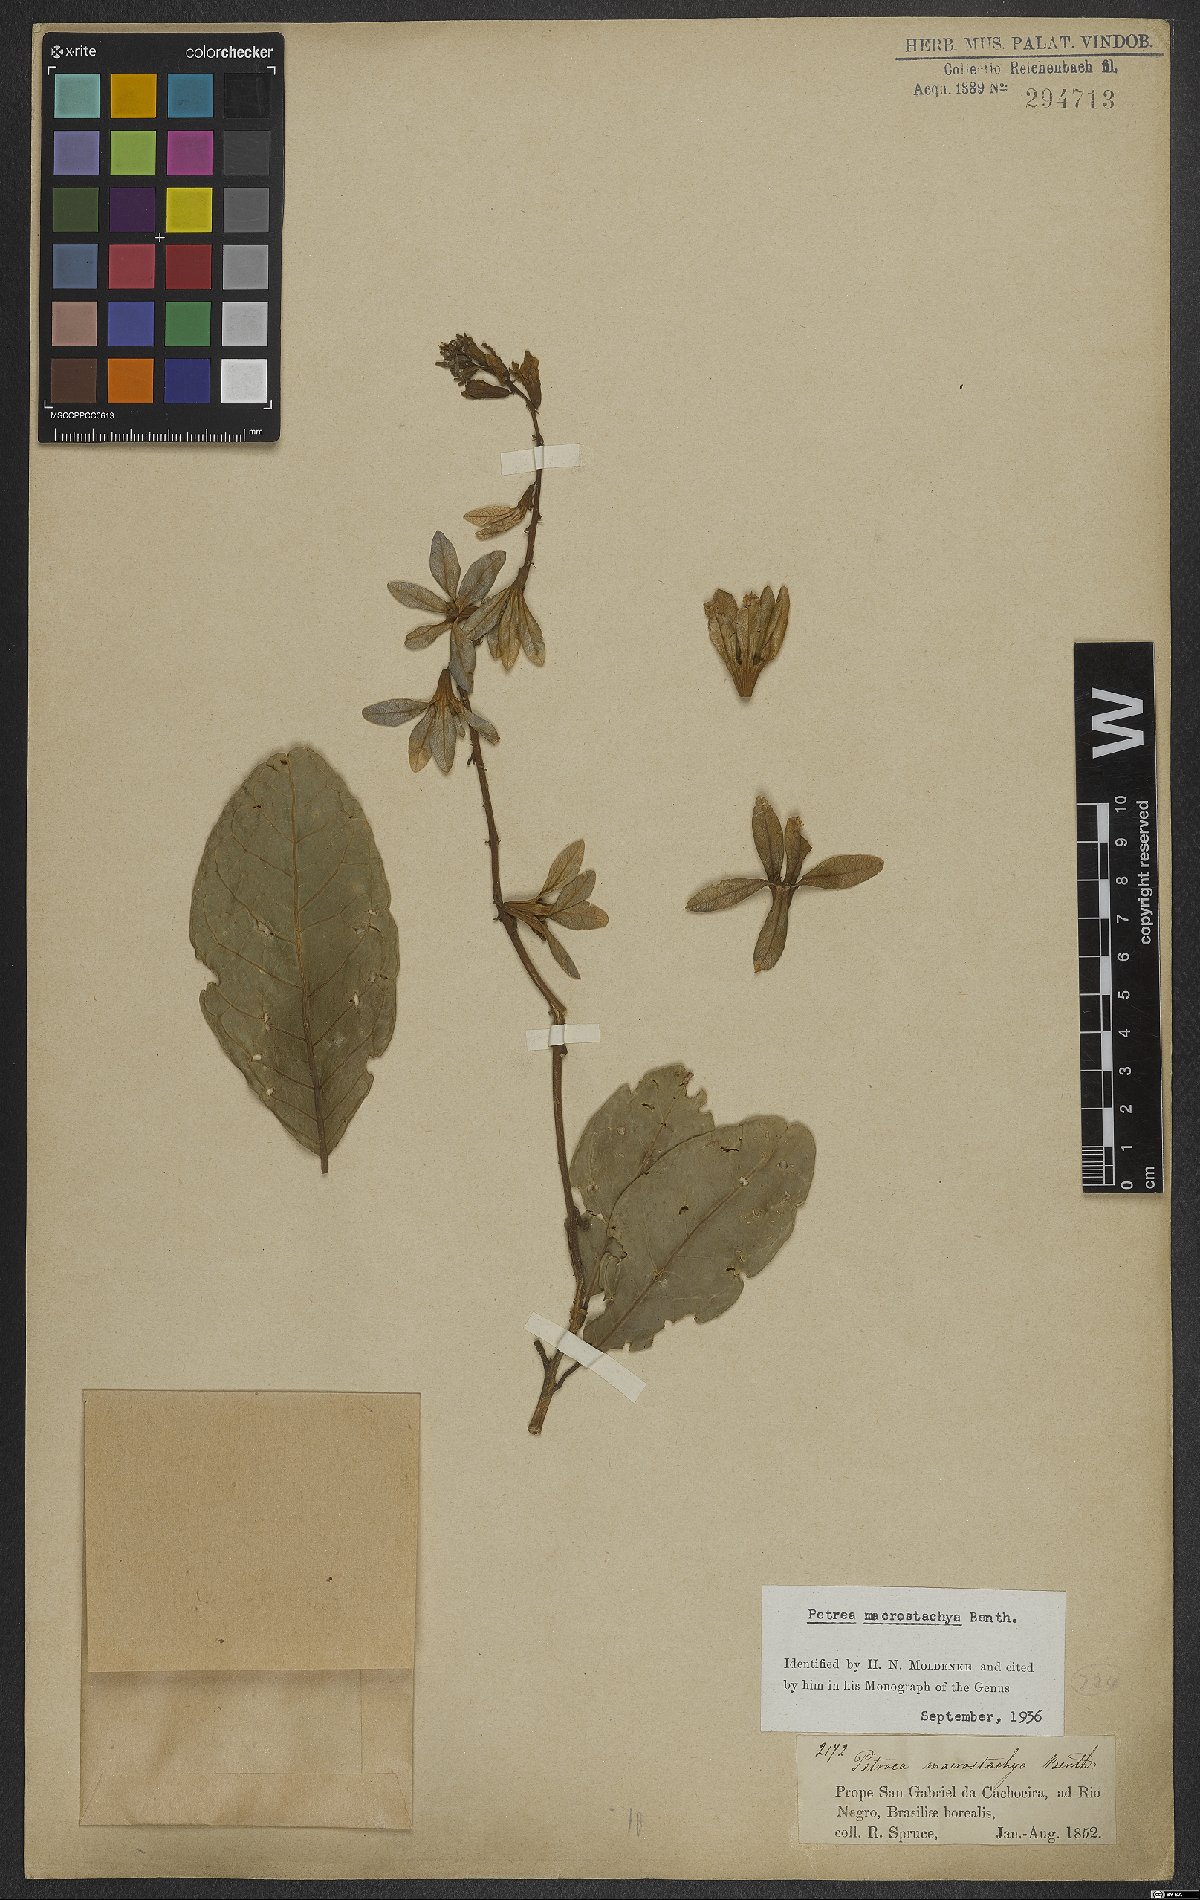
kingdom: Plantae
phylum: Tracheophyta
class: Magnoliopsida
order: Lamiales
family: Verbenaceae
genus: Petrea
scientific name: Petrea macrostachya
